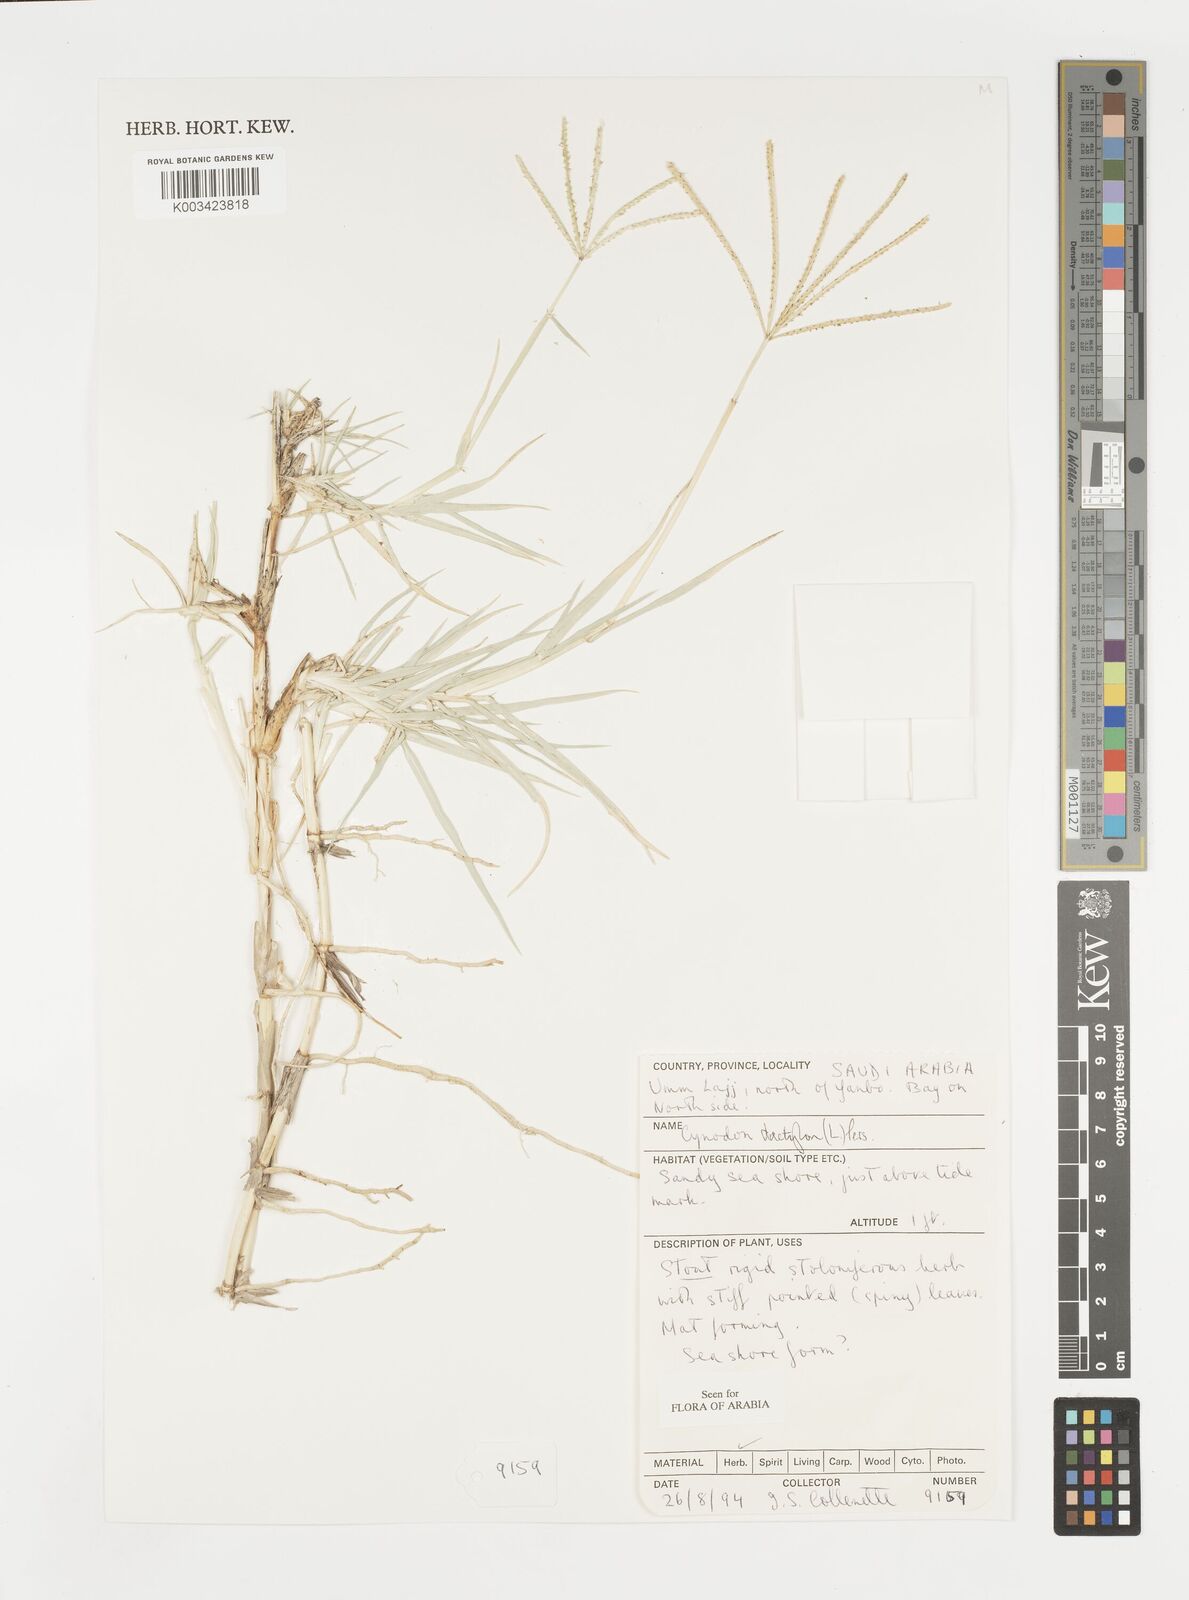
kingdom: Plantae
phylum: Tracheophyta
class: Liliopsida
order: Poales
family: Poaceae
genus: Cynodon
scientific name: Cynodon dactylon
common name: Bermuda grass
